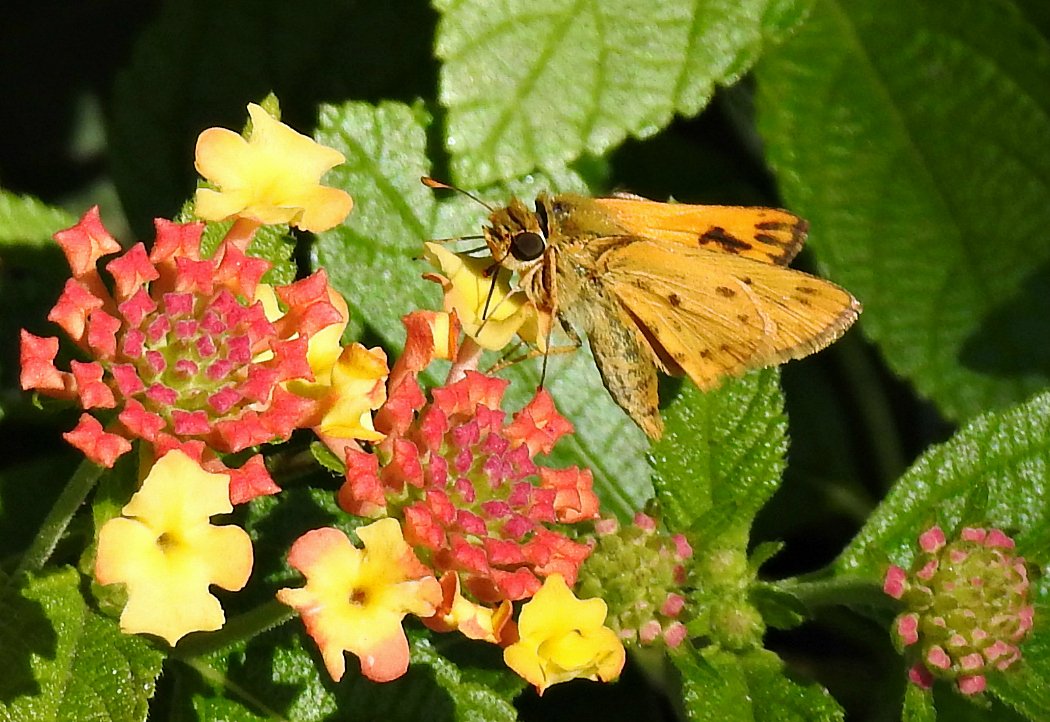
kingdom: Animalia
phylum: Arthropoda
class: Insecta
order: Lepidoptera
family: Hesperiidae
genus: Hylephila
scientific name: Hylephila phyleus
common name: Fiery Skipper
